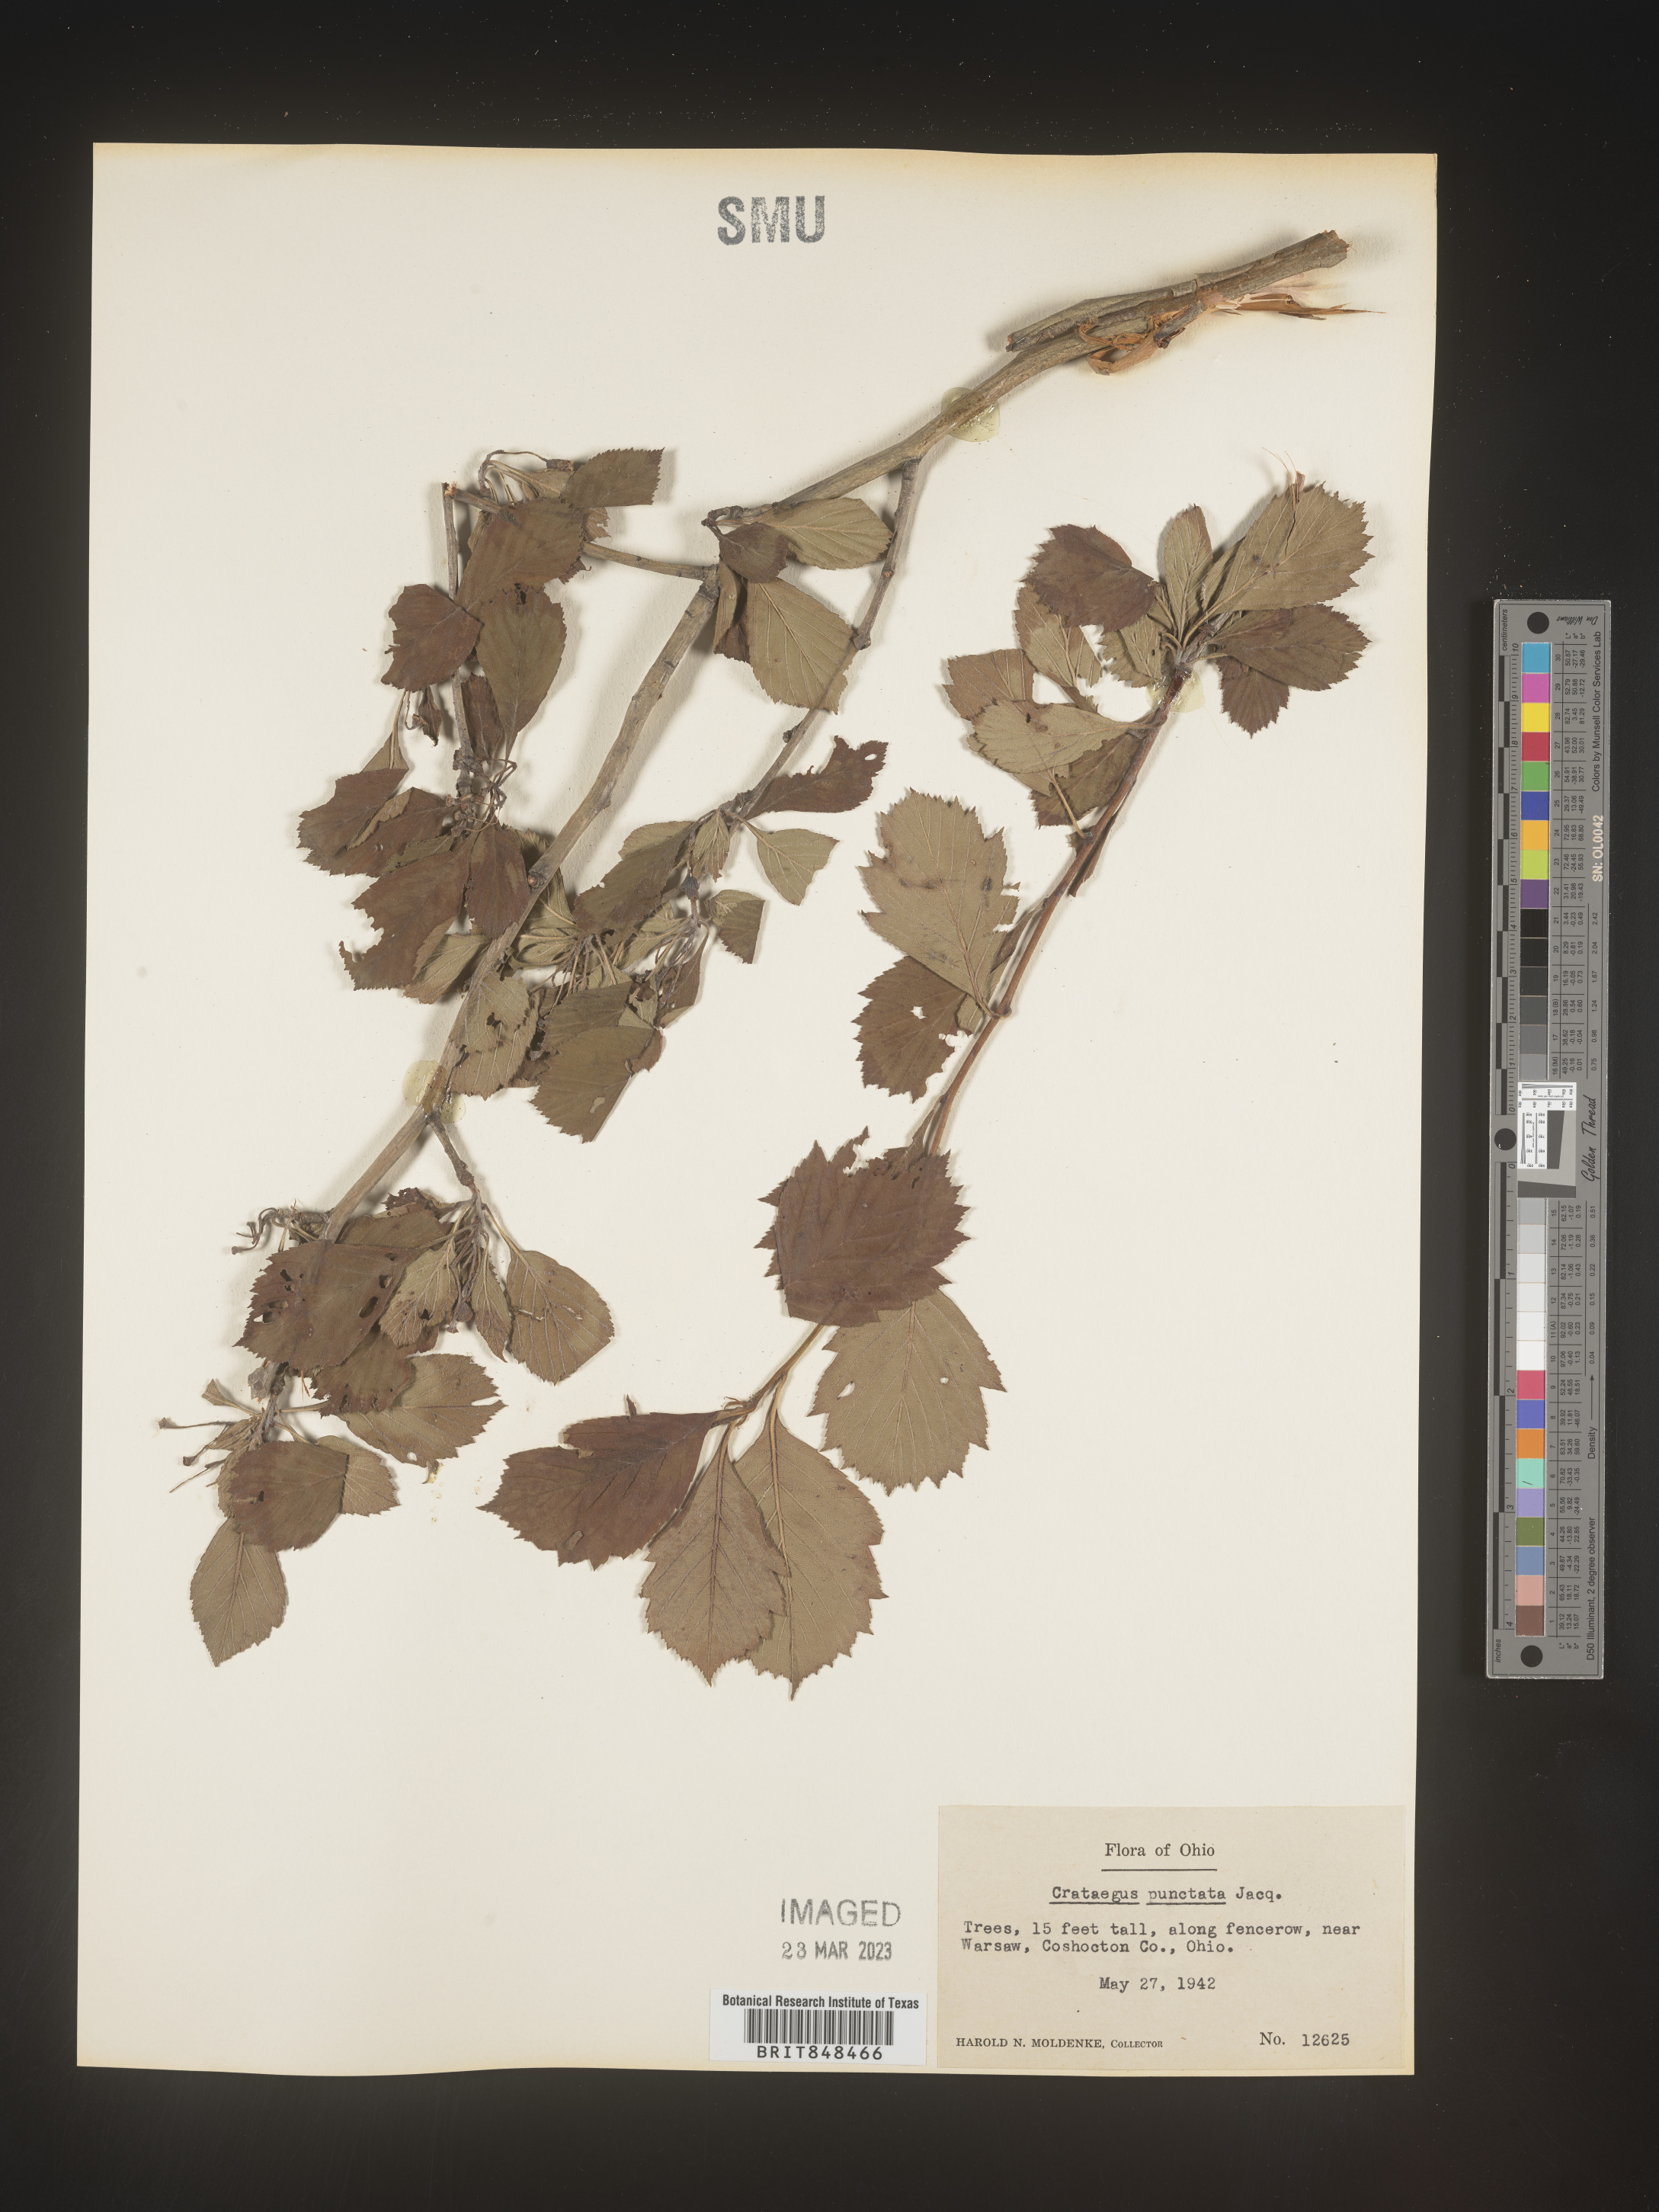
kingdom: Plantae
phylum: Tracheophyta
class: Magnoliopsida
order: Rosales
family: Rosaceae
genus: Crataegus
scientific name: Crataegus punctata
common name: Dotted hawthorn
